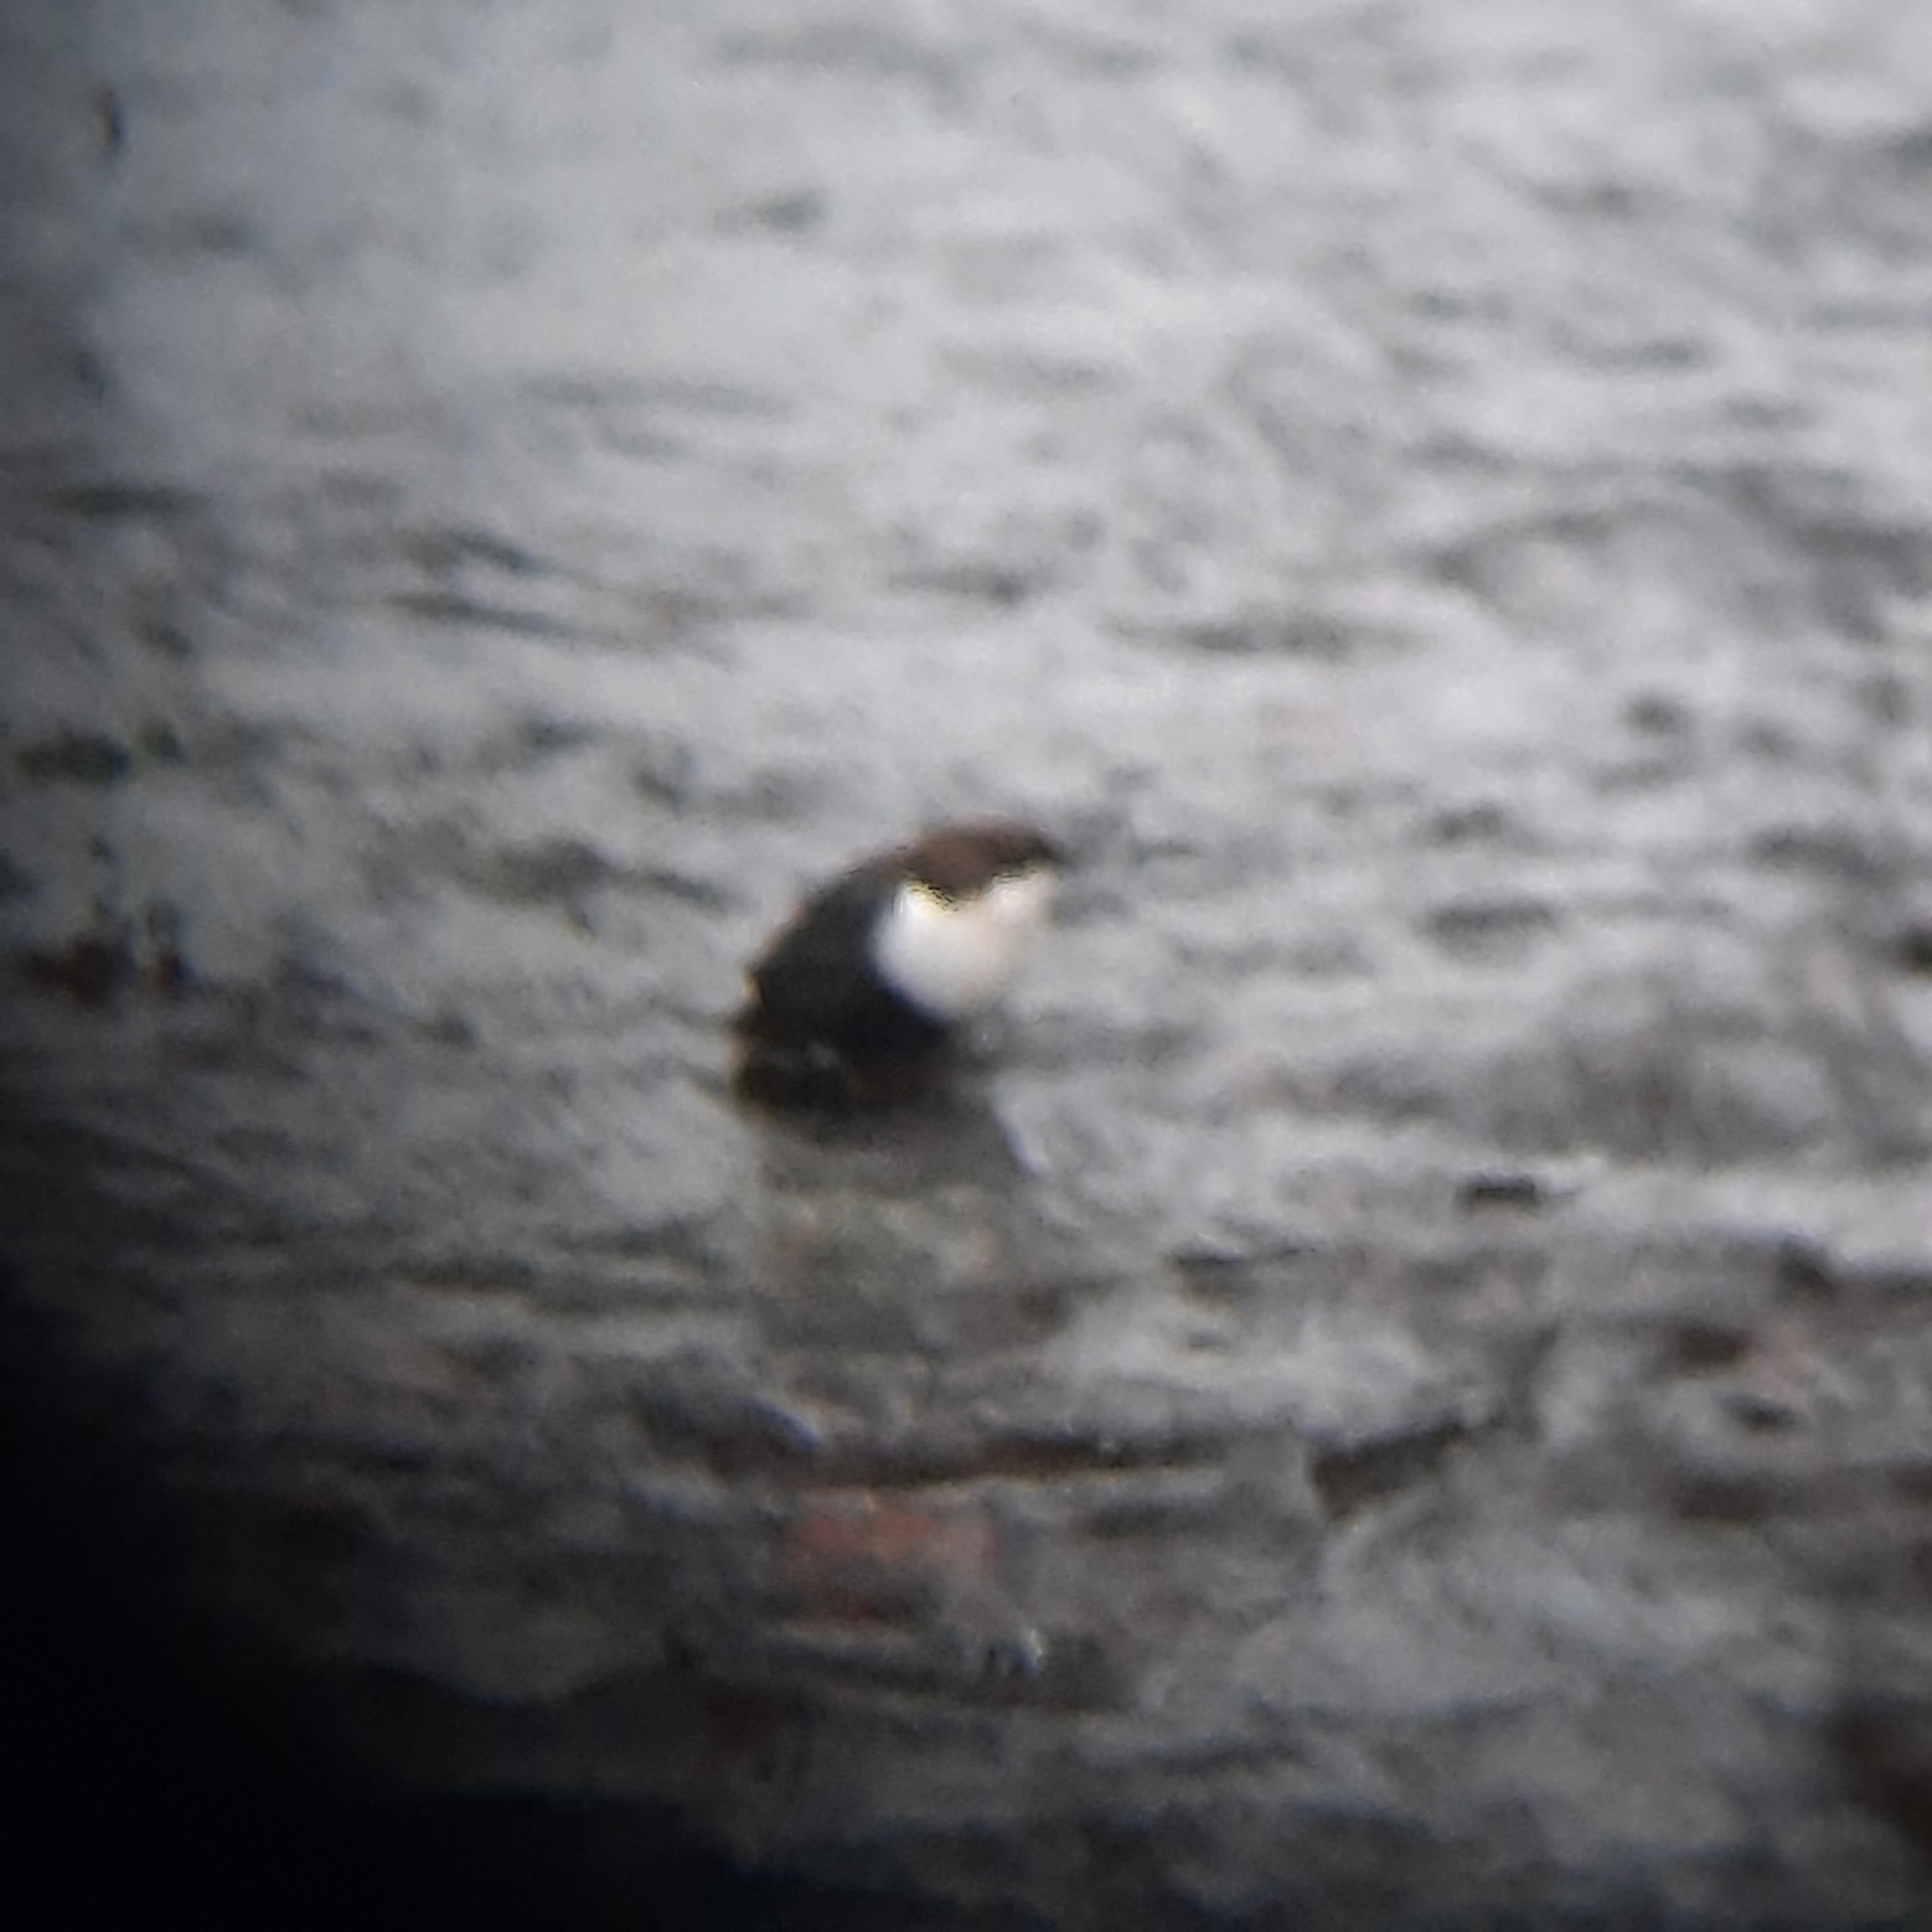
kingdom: Animalia
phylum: Chordata
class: Aves
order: Passeriformes
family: Cinclidae
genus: Cinclus
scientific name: Cinclus cinclus
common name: Vandstær
